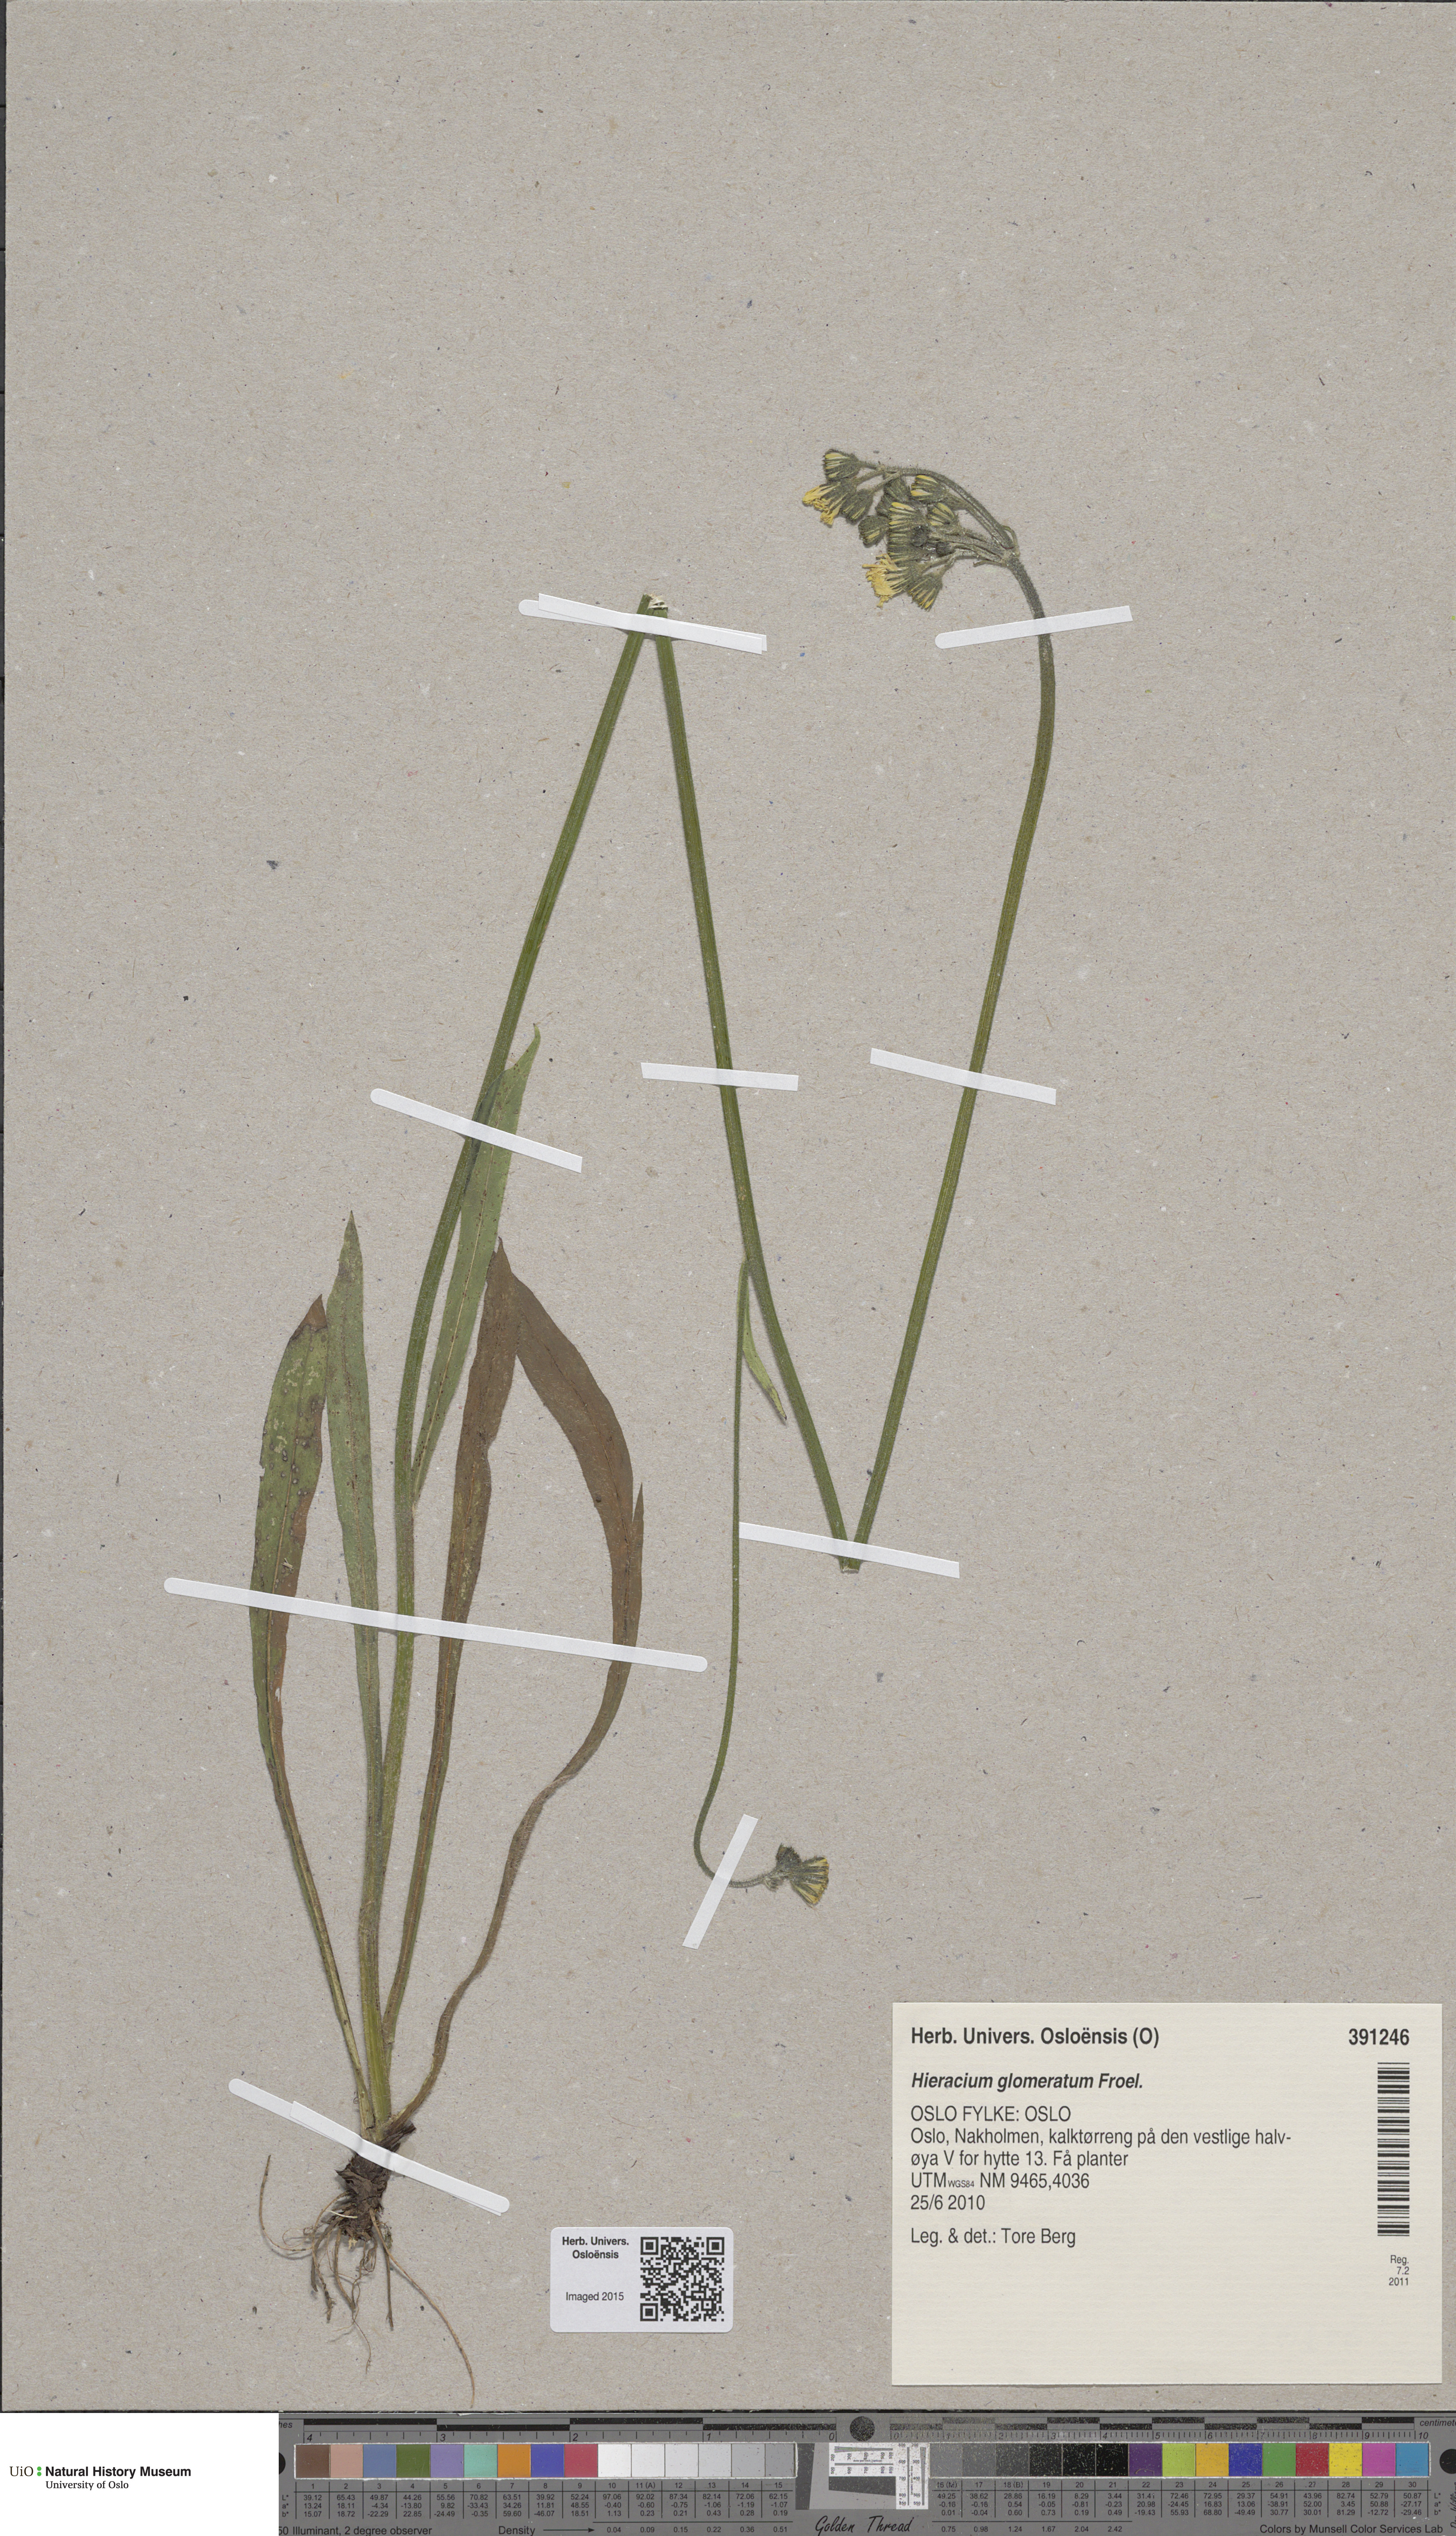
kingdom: Plantae
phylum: Tracheophyta
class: Magnoliopsida
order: Asterales
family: Asteraceae
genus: Pilosella
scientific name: Pilosella glomerata
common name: Queen devil hawkweed
